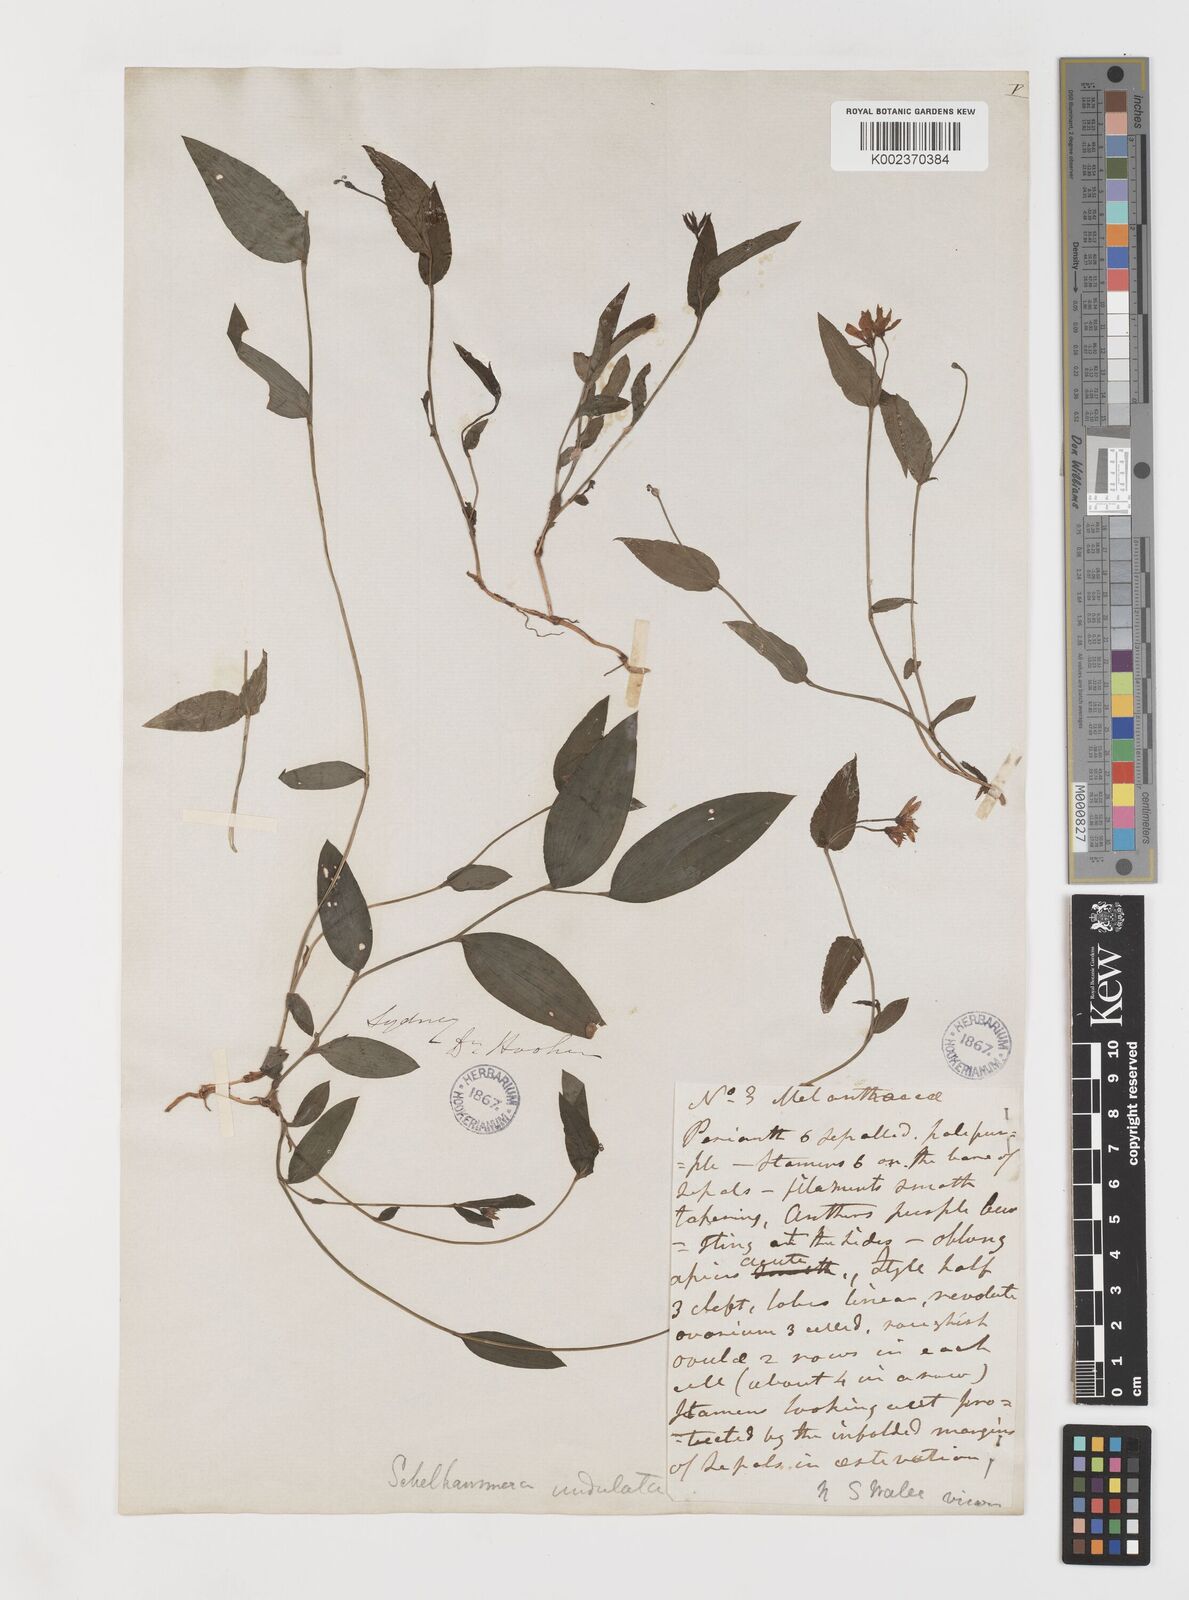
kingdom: Plantae
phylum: Tracheophyta
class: Liliopsida
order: Liliales
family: Colchicaceae
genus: Schelhammera
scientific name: Schelhammera undulata
